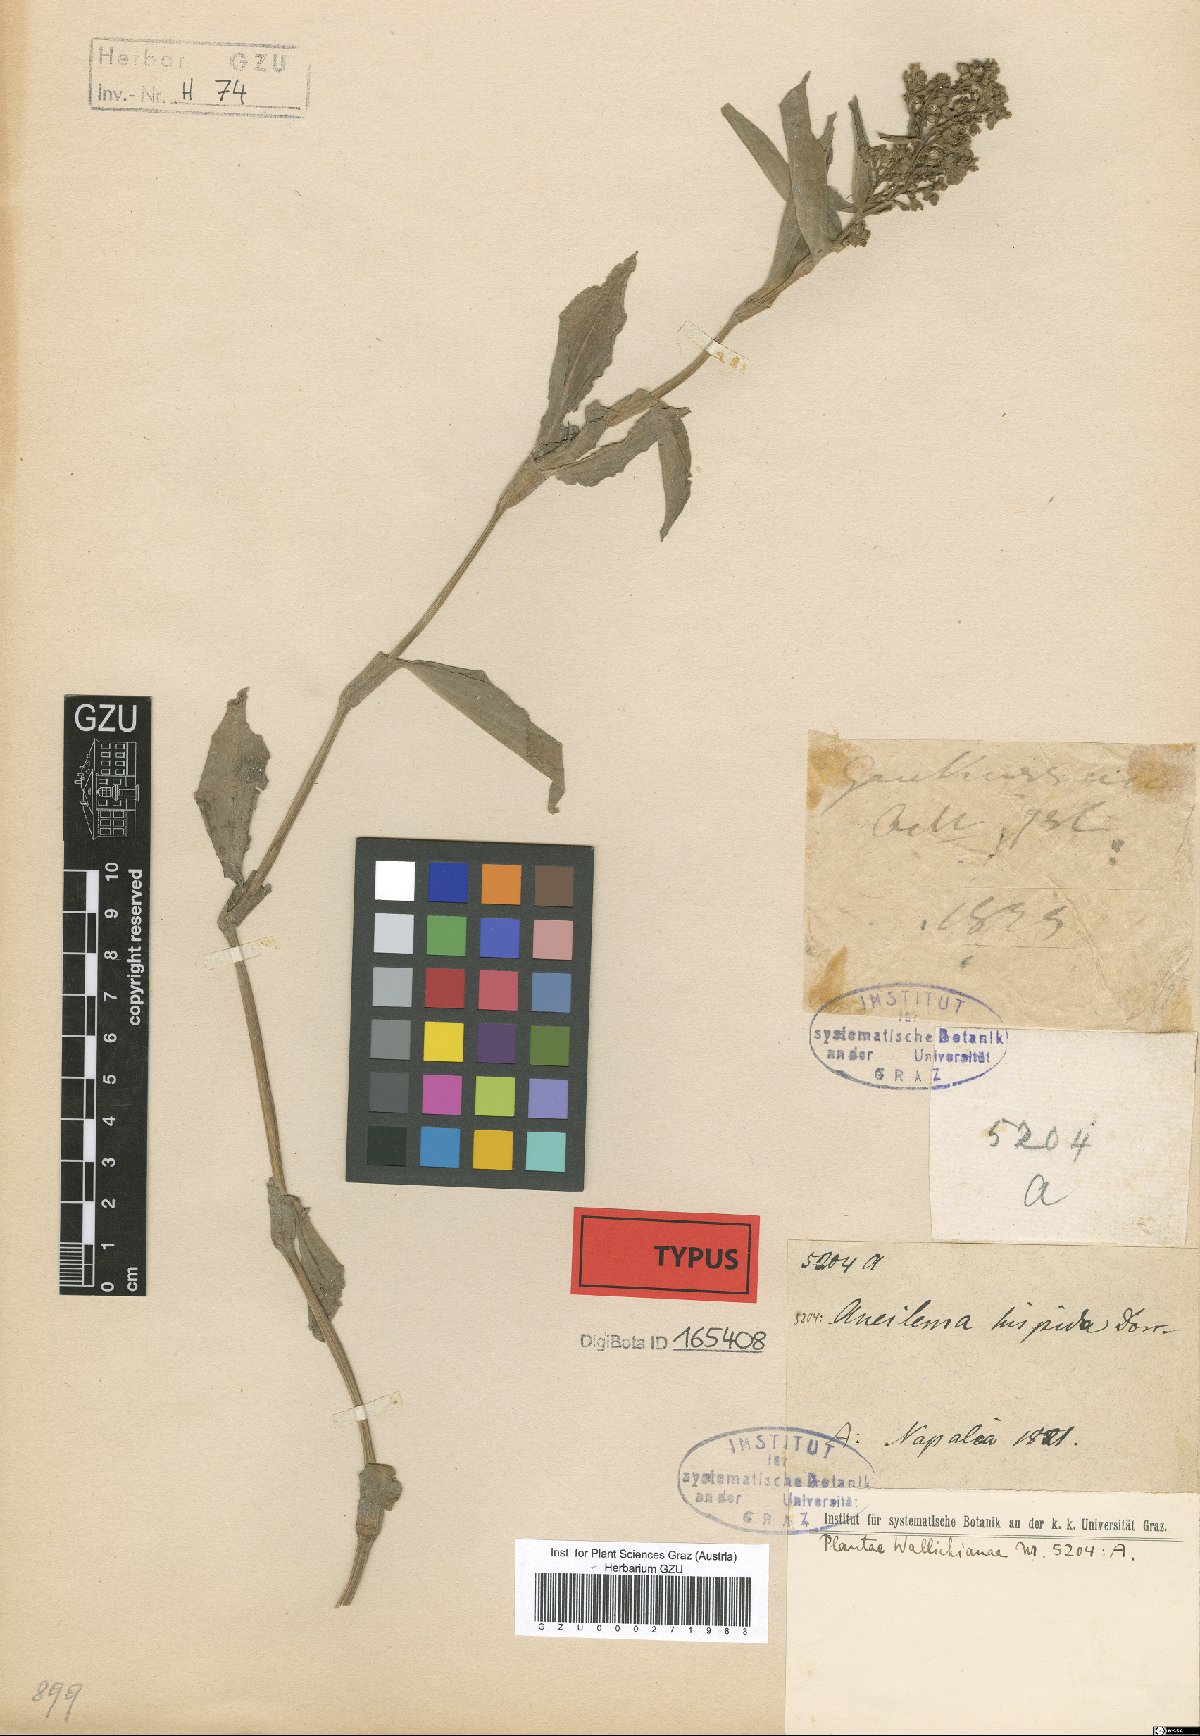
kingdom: Plantae
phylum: Tracheophyta
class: Liliopsida
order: Commelinales
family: Commelinaceae
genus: Floscopa
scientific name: Floscopa scandens
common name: Climbing flower cup
